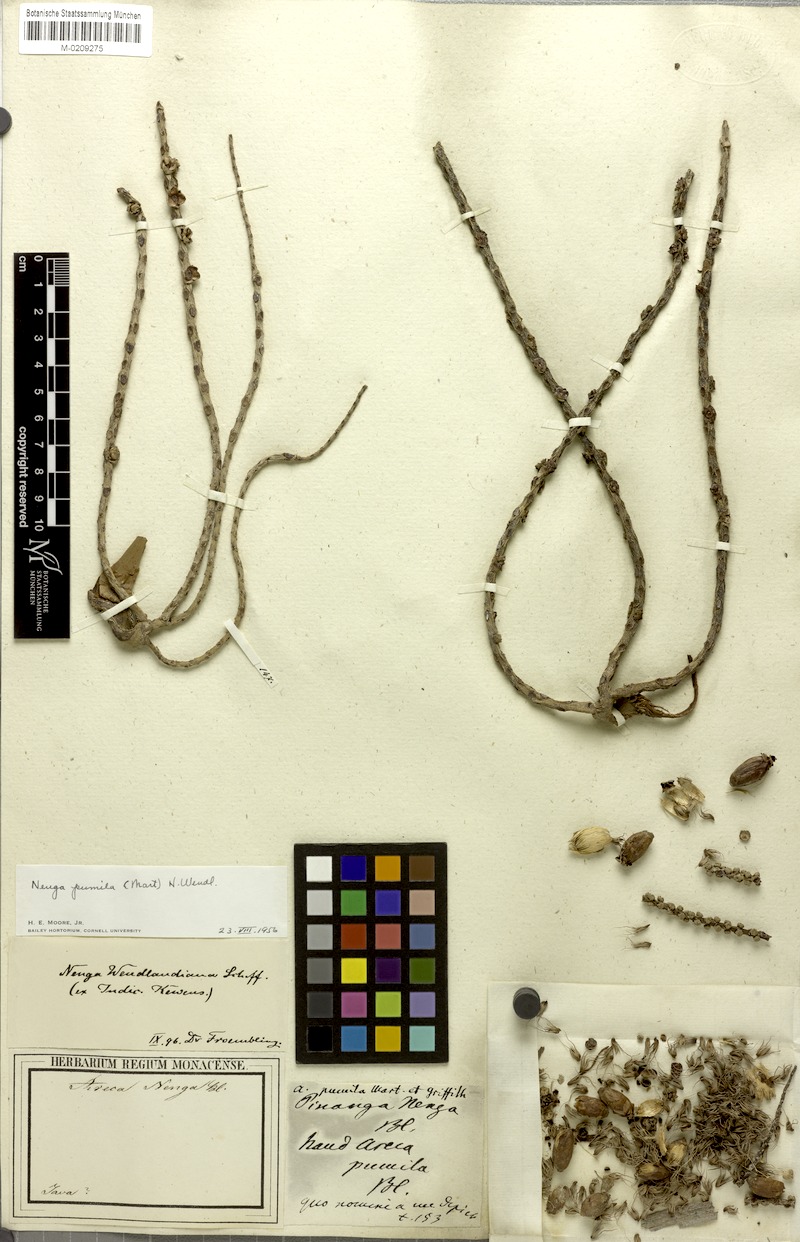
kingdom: Plantae
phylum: Tracheophyta
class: Liliopsida
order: Arecales
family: Arecaceae
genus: Nenga
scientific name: Nenga pumila
